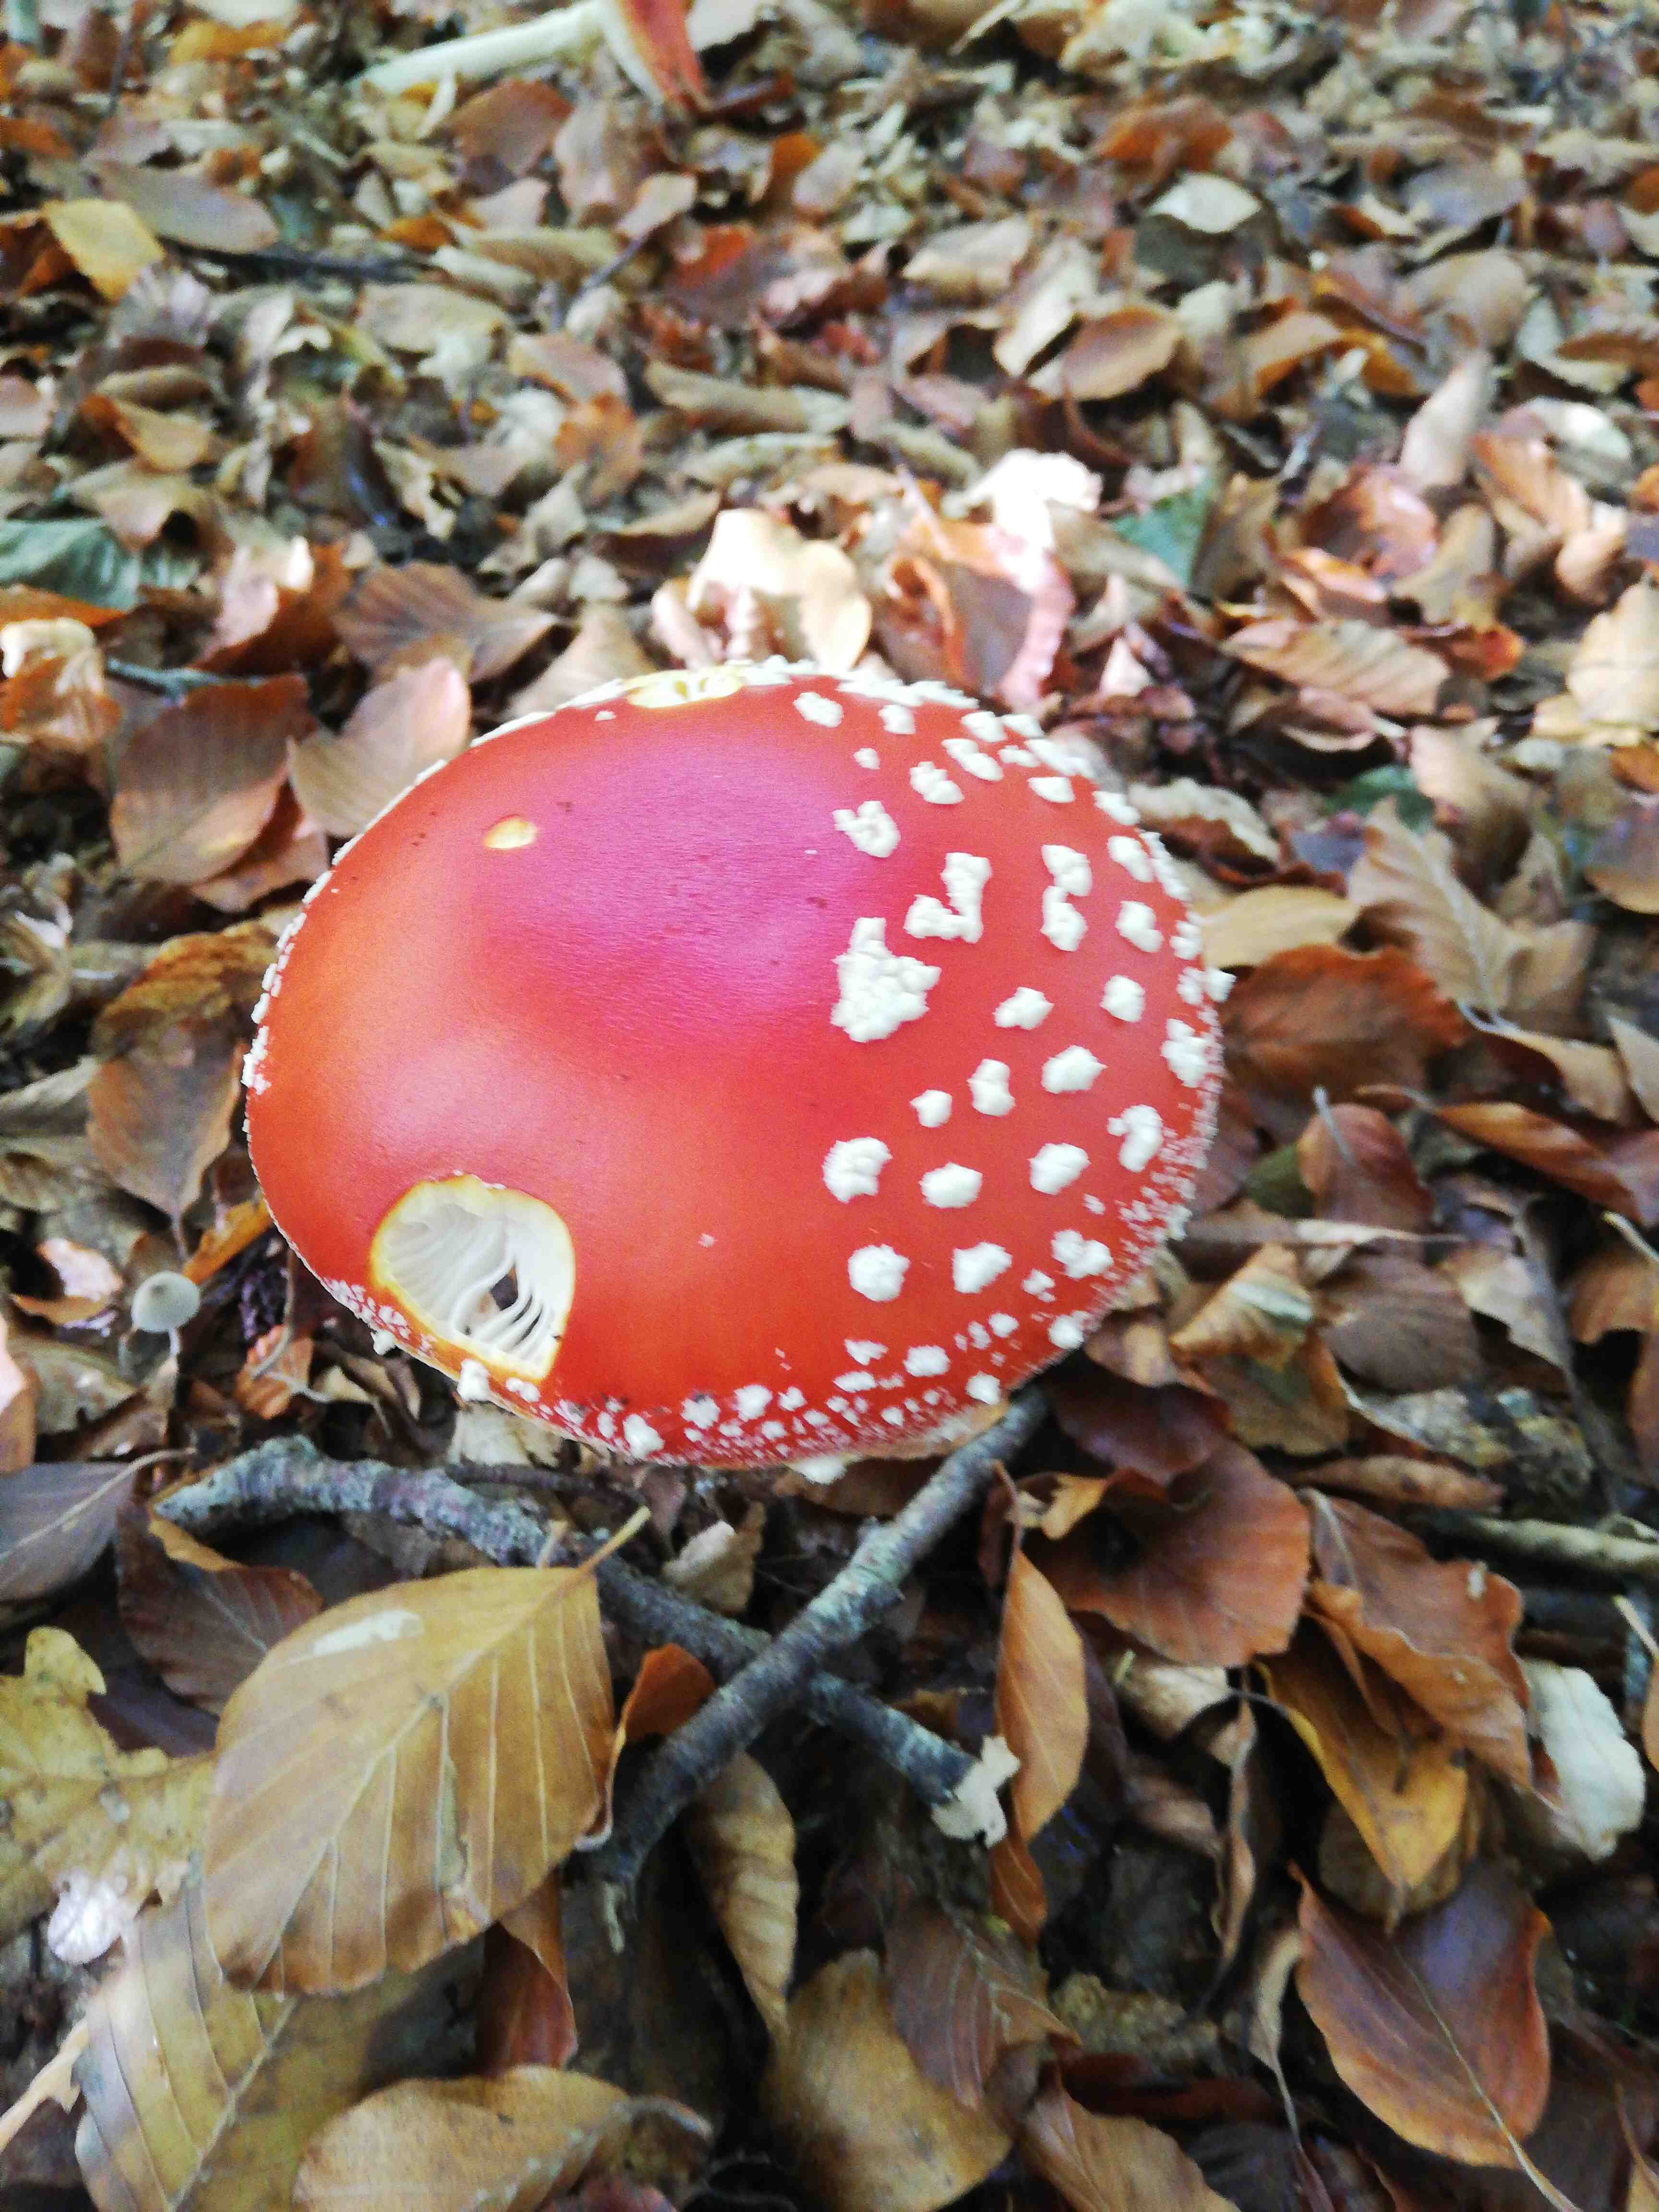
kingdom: Fungi
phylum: Basidiomycota
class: Agaricomycetes
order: Agaricales
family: Amanitaceae
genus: Amanita
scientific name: Amanita muscaria
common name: rød fluesvamp
